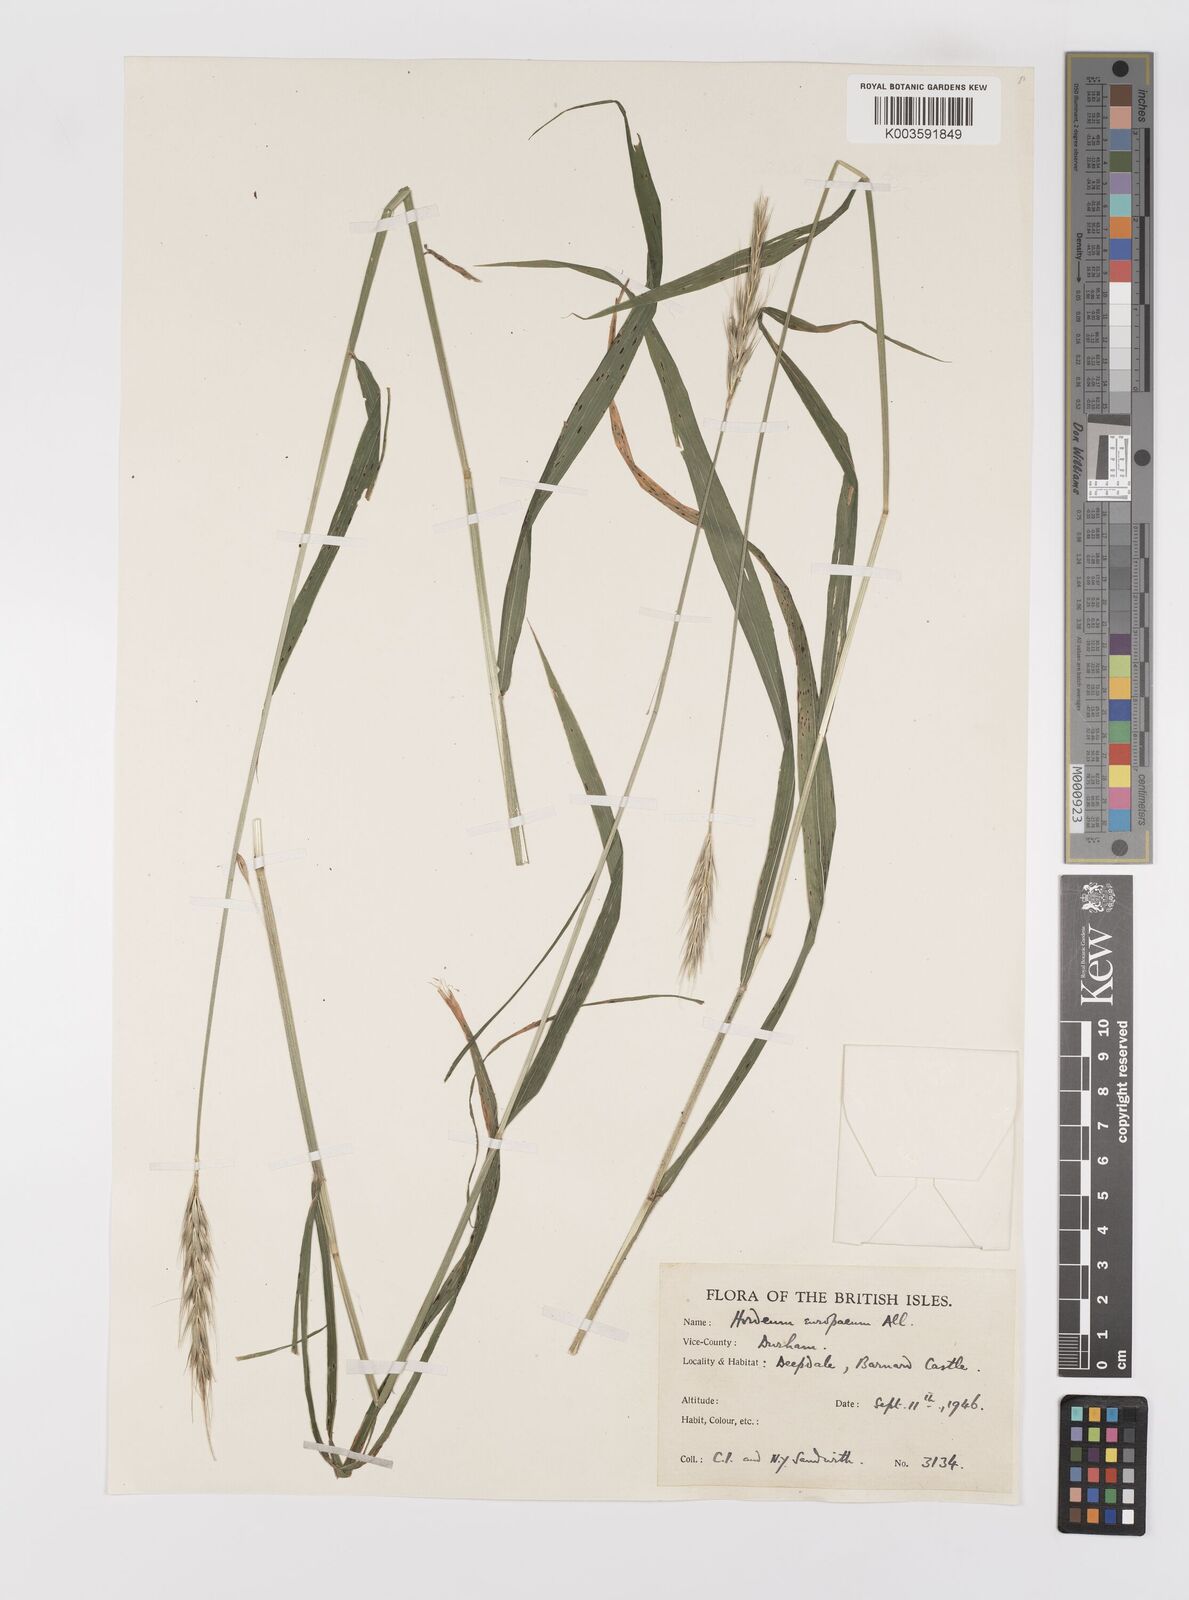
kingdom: Plantae
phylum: Tracheophyta
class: Liliopsida
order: Poales
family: Poaceae
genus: Hordelymus
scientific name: Hordelymus europaeus
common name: Wood-barley
